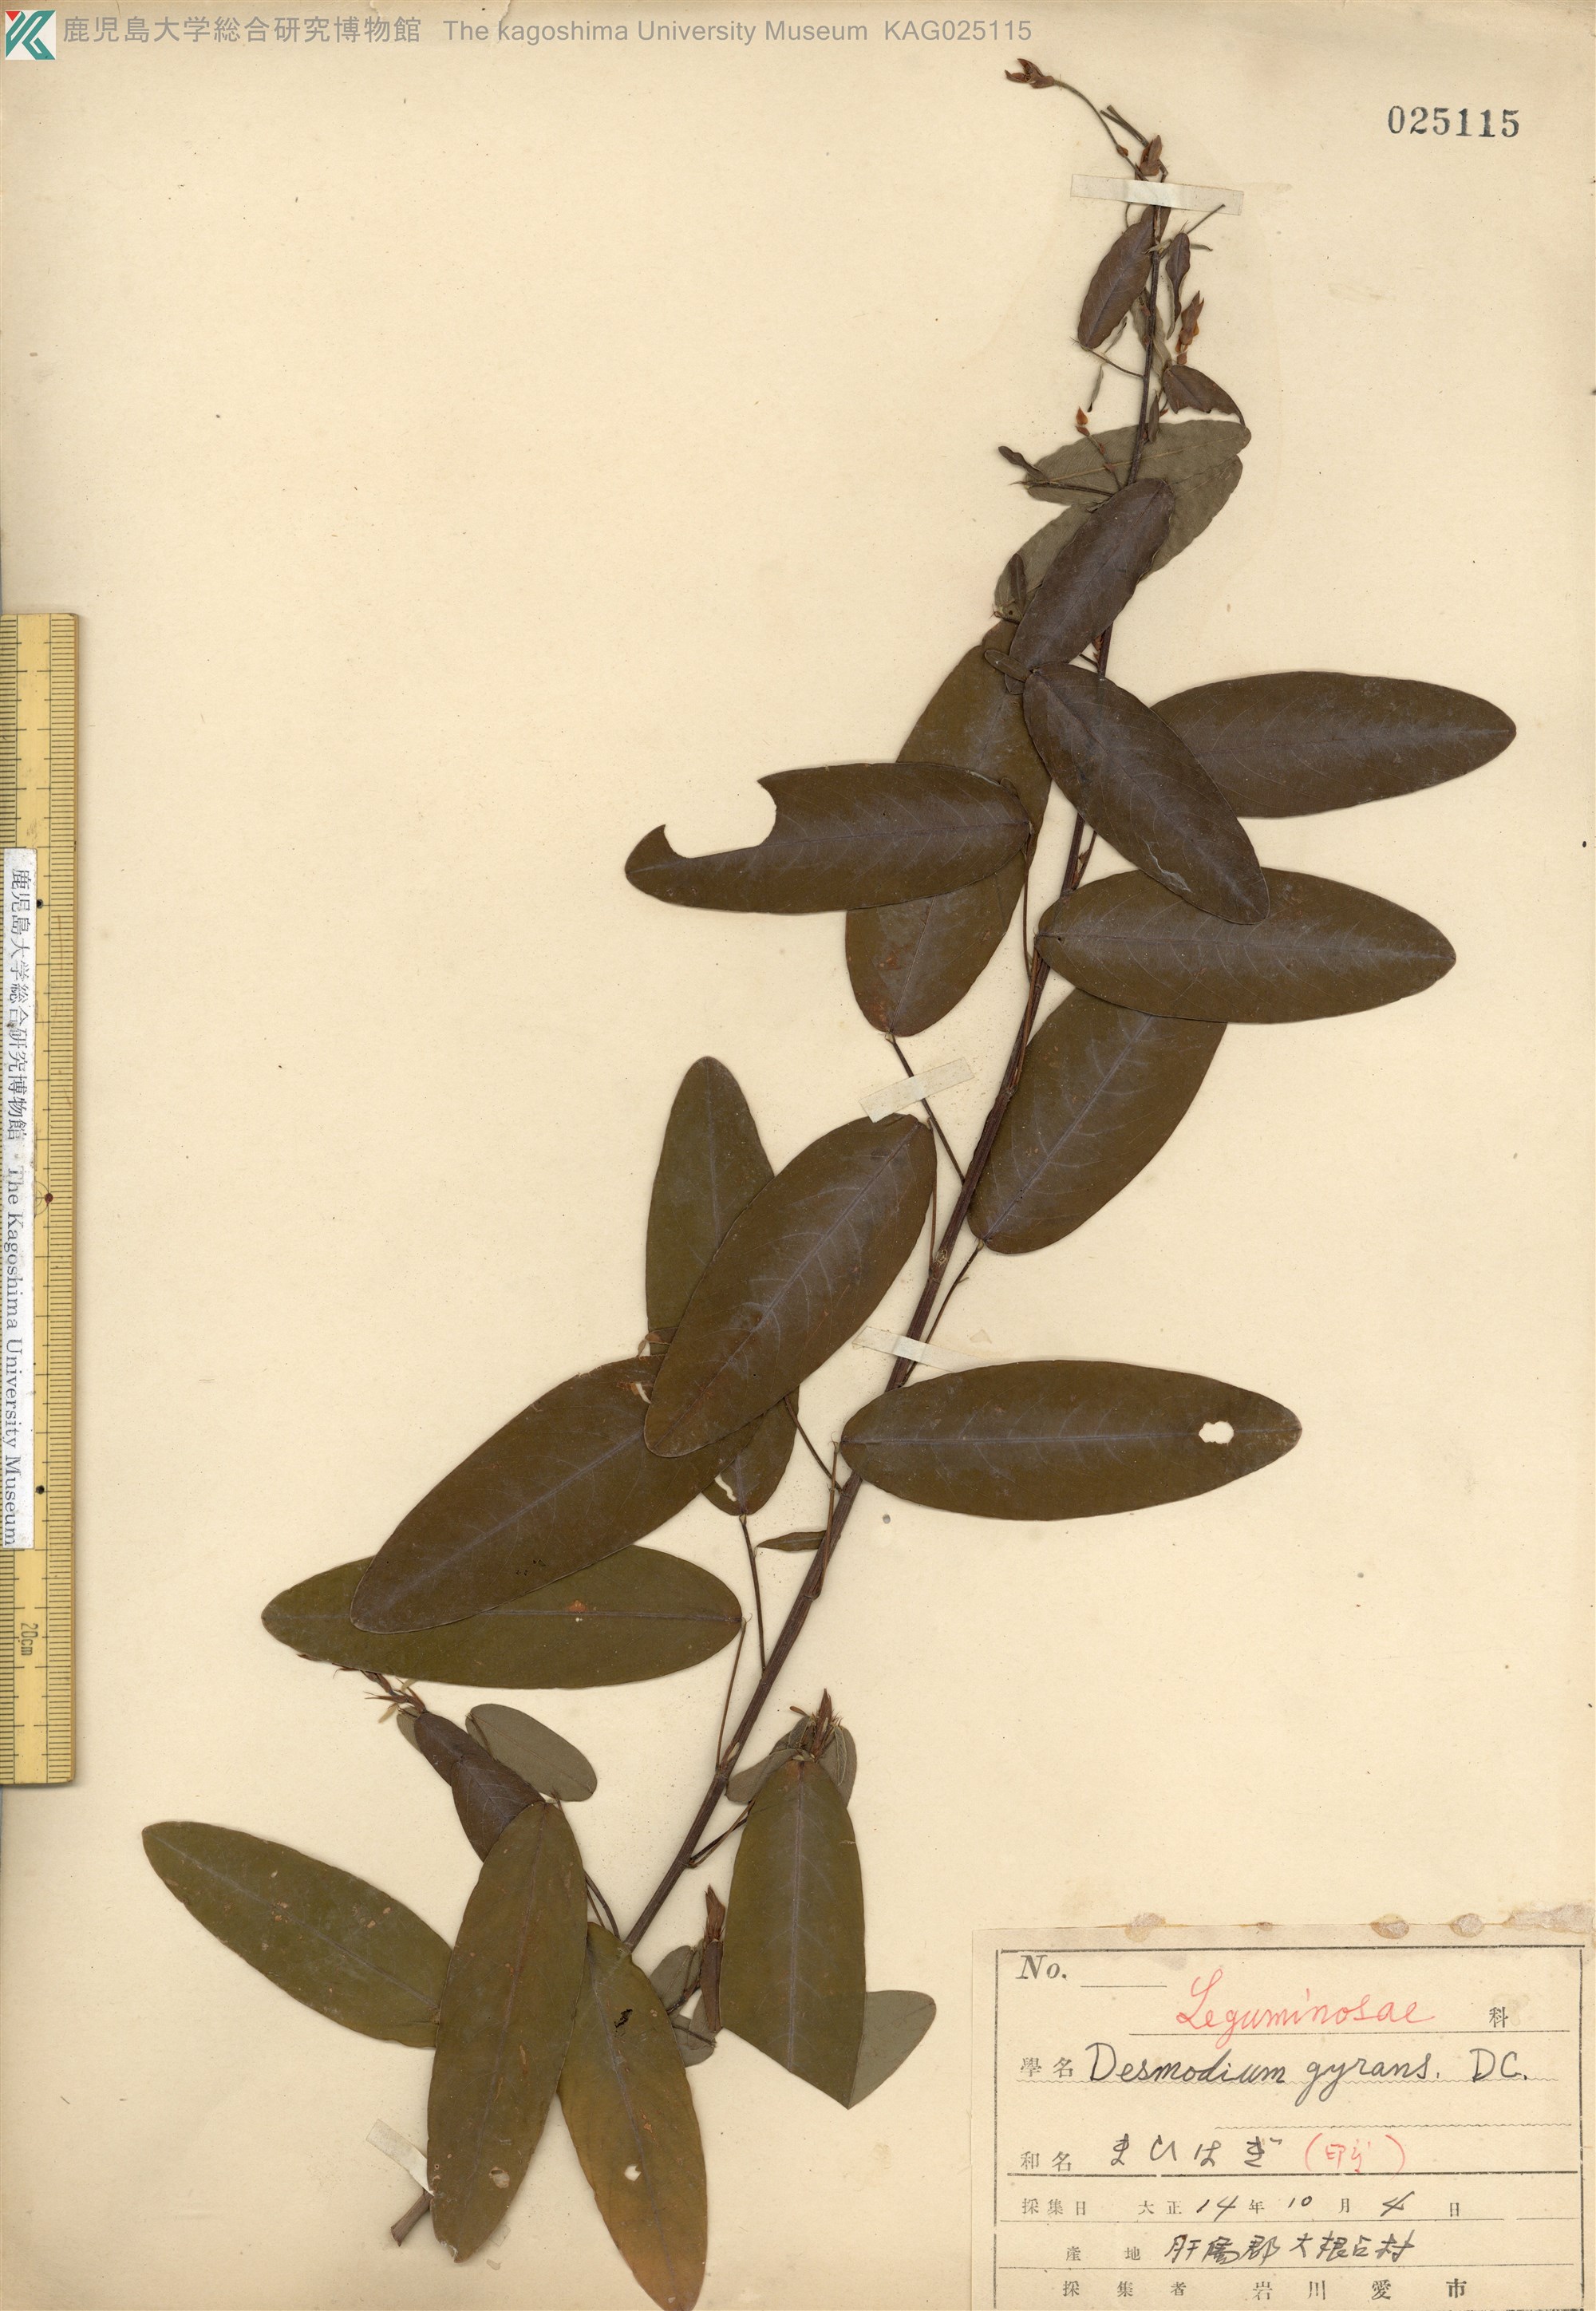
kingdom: Plantae
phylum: Tracheophyta
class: Magnoliopsida
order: Fabales
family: Fabaceae
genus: Codariocalyx
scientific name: Codariocalyx motorius
